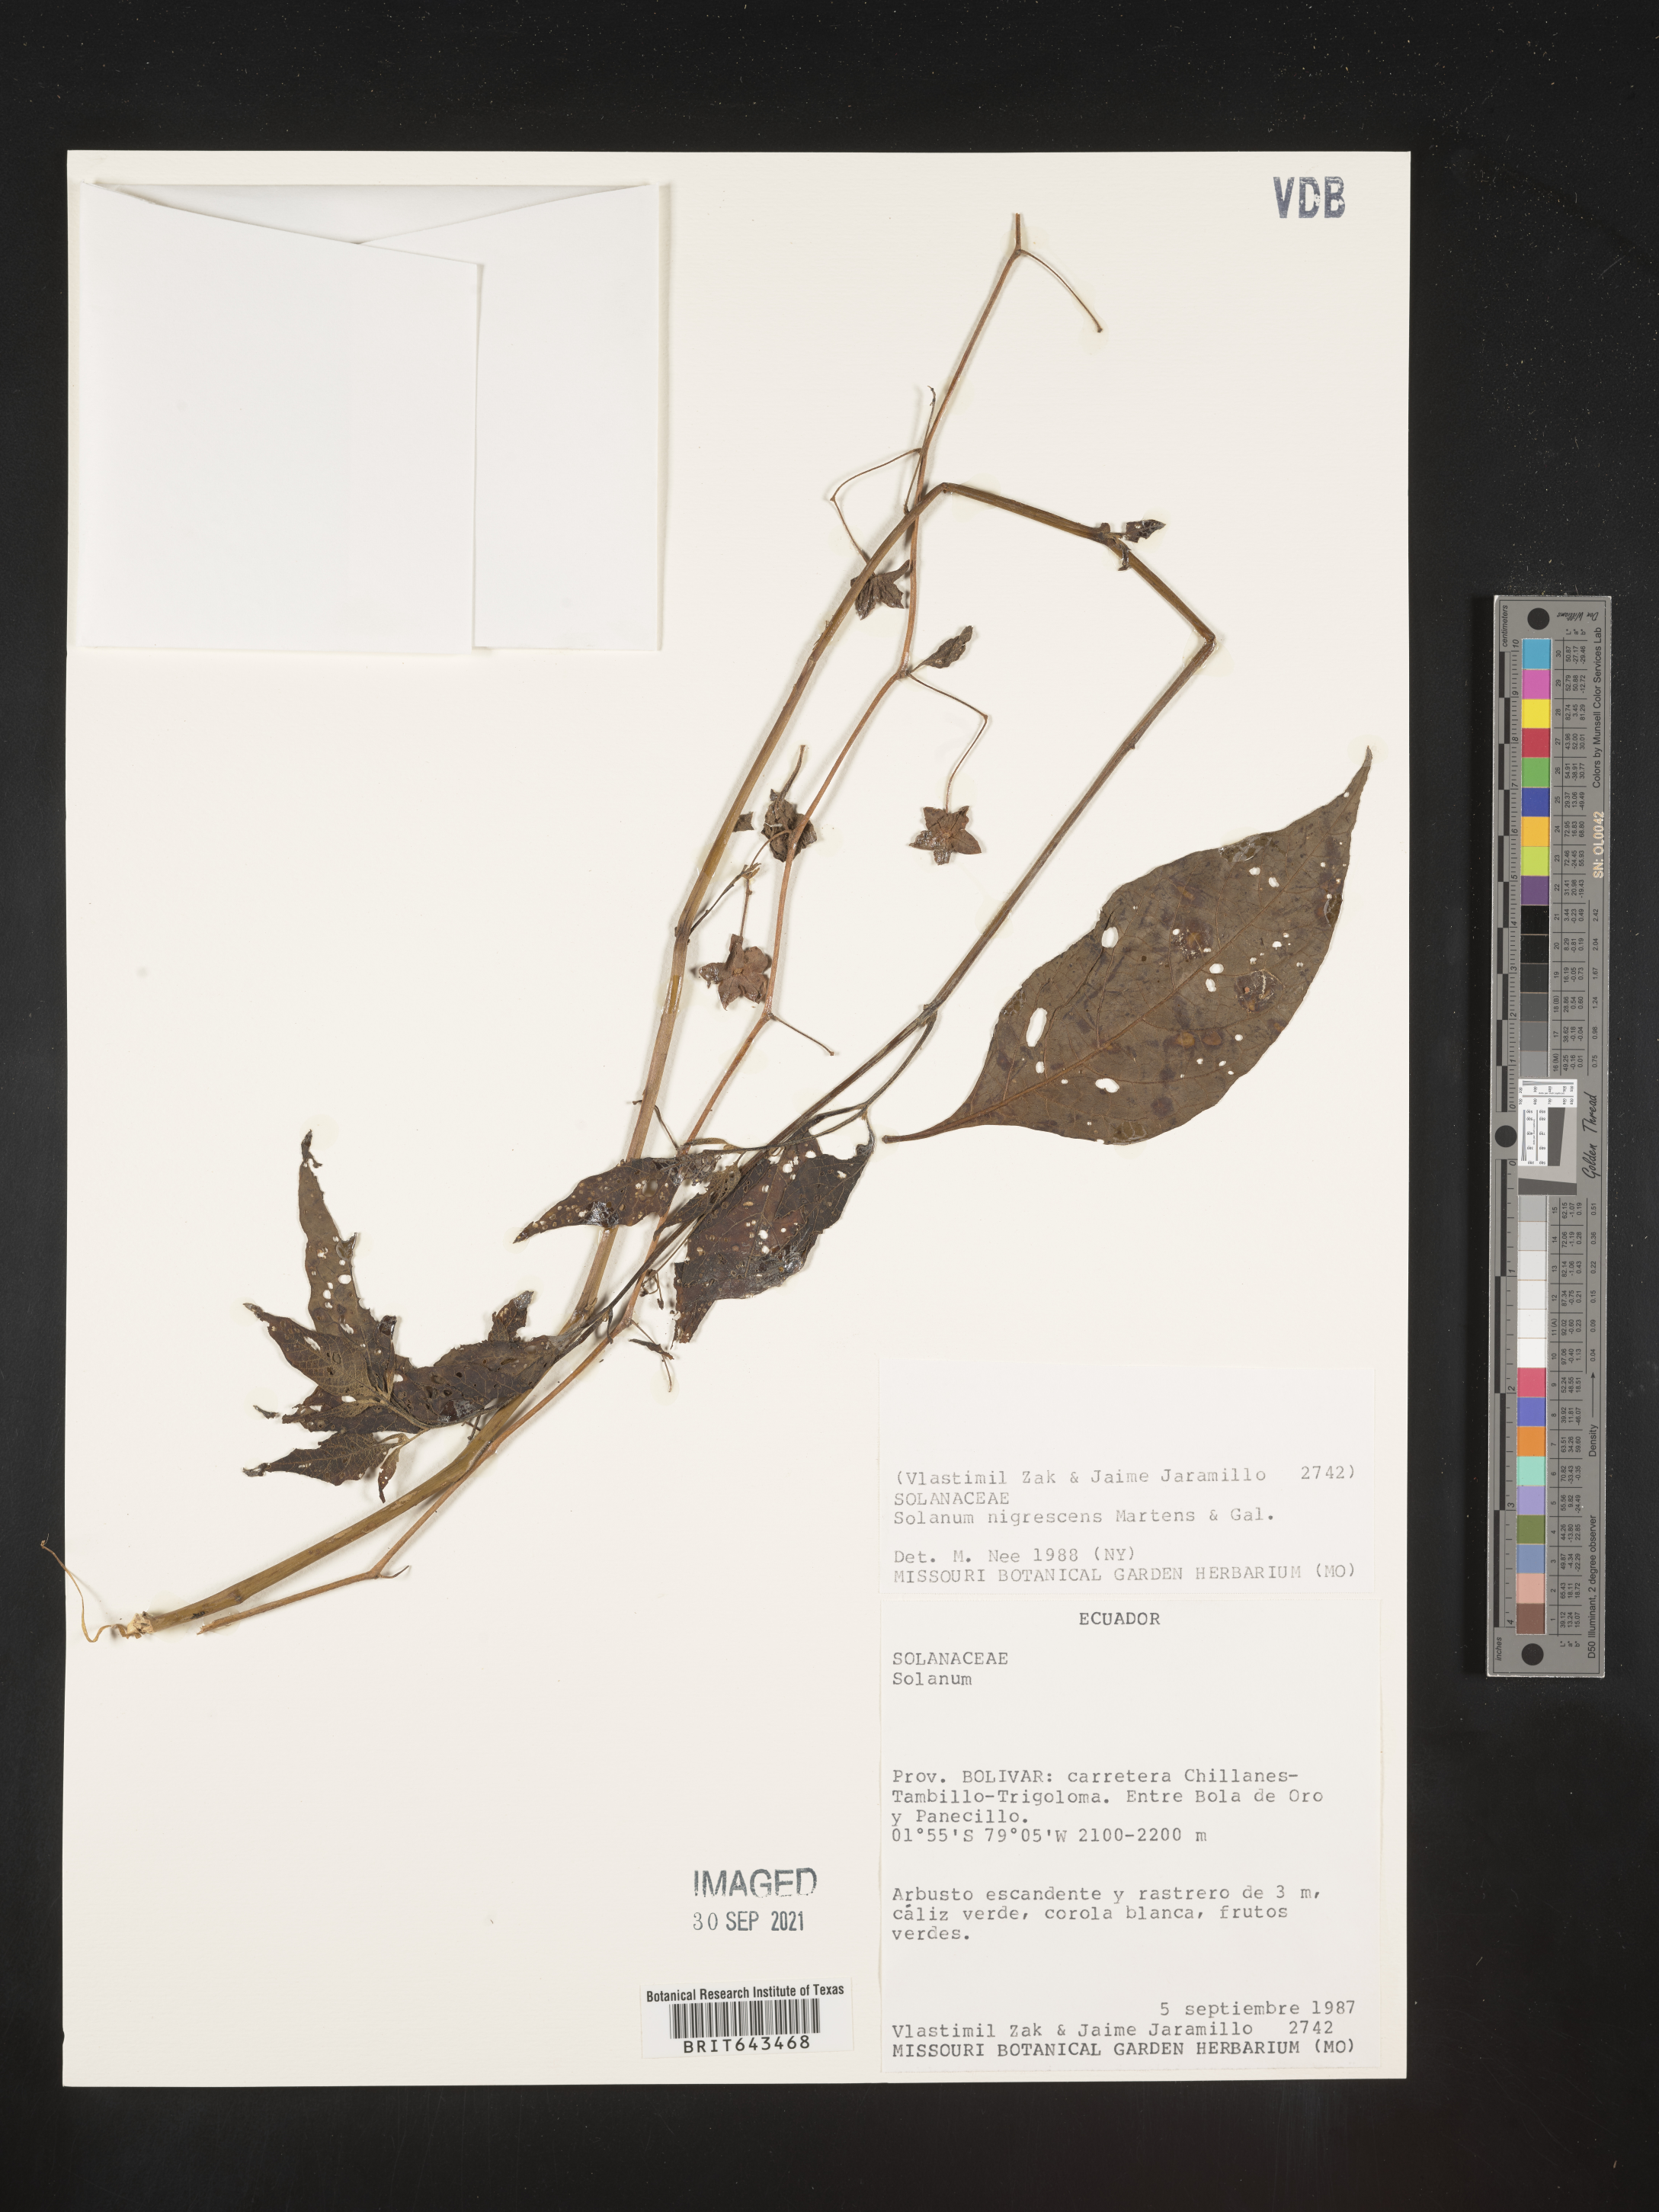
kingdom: Plantae
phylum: Tracheophyta
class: Magnoliopsida
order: Solanales
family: Solanaceae
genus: Solanum
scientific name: Solanum
